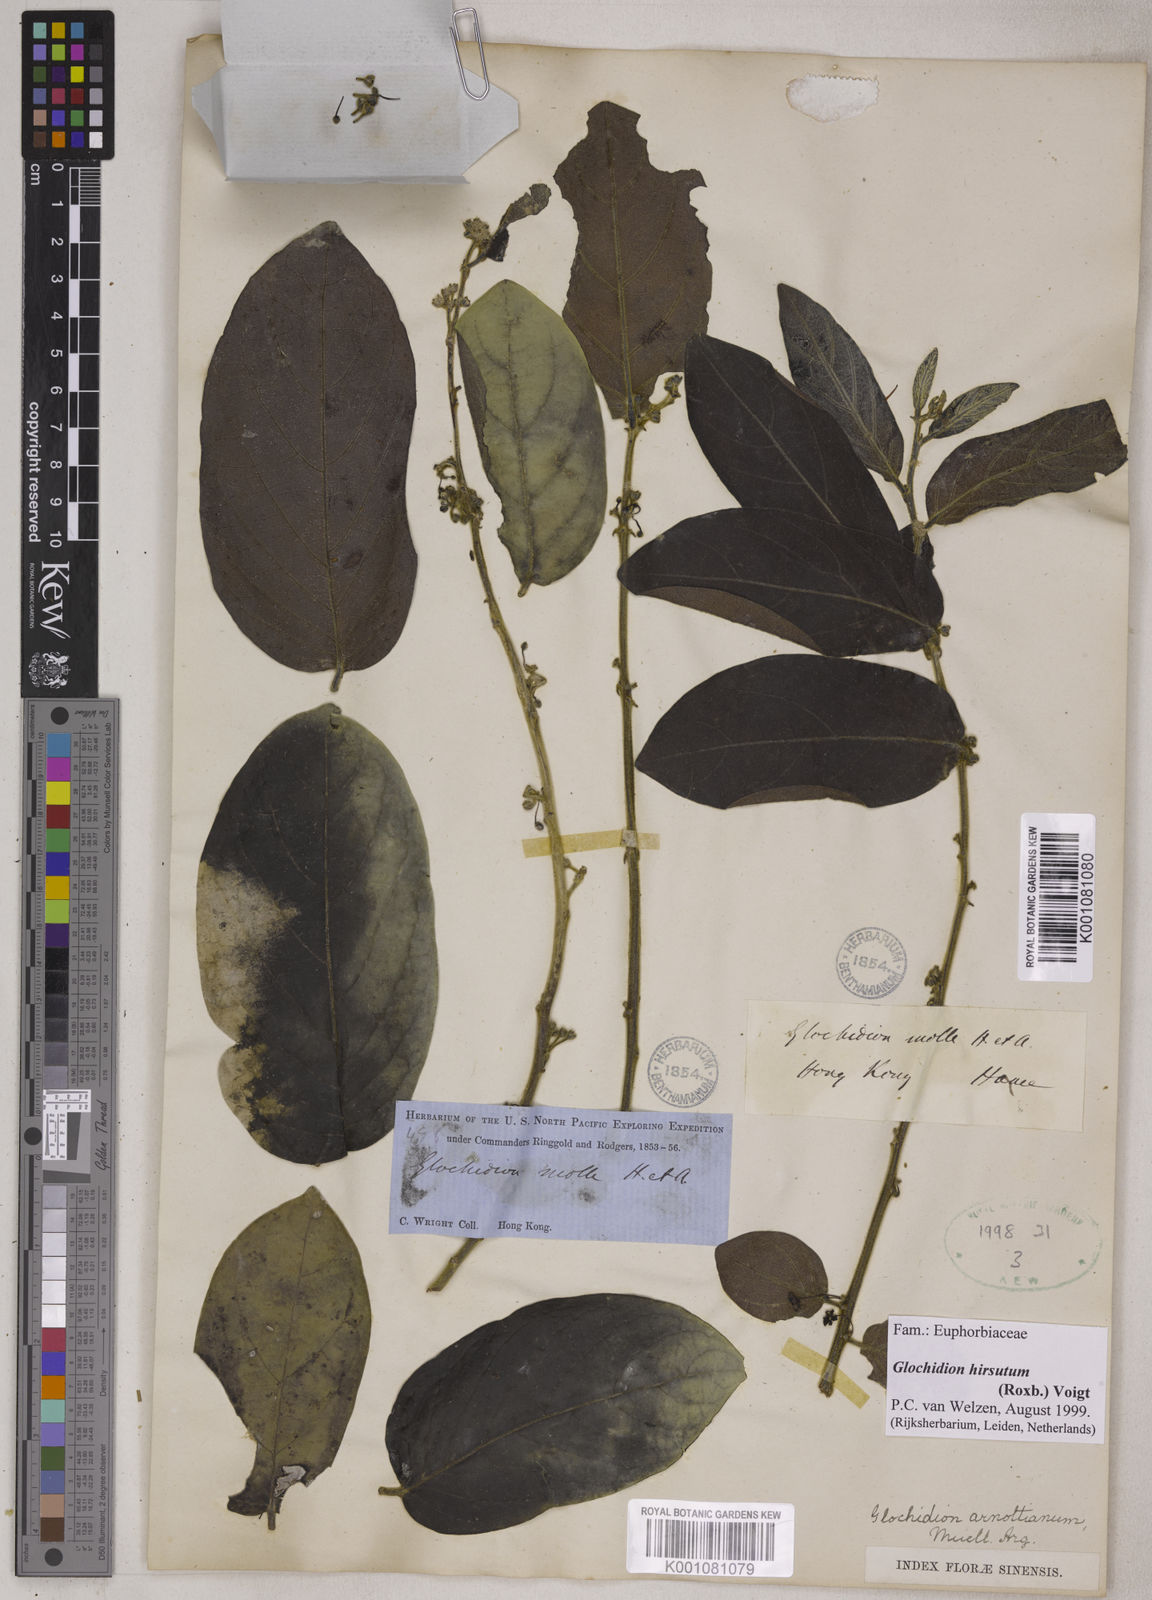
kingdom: Plantae
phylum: Tracheophyta
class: Magnoliopsida
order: Malpighiales
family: Phyllanthaceae
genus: Glochidion
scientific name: Glochidion zeylanicum
